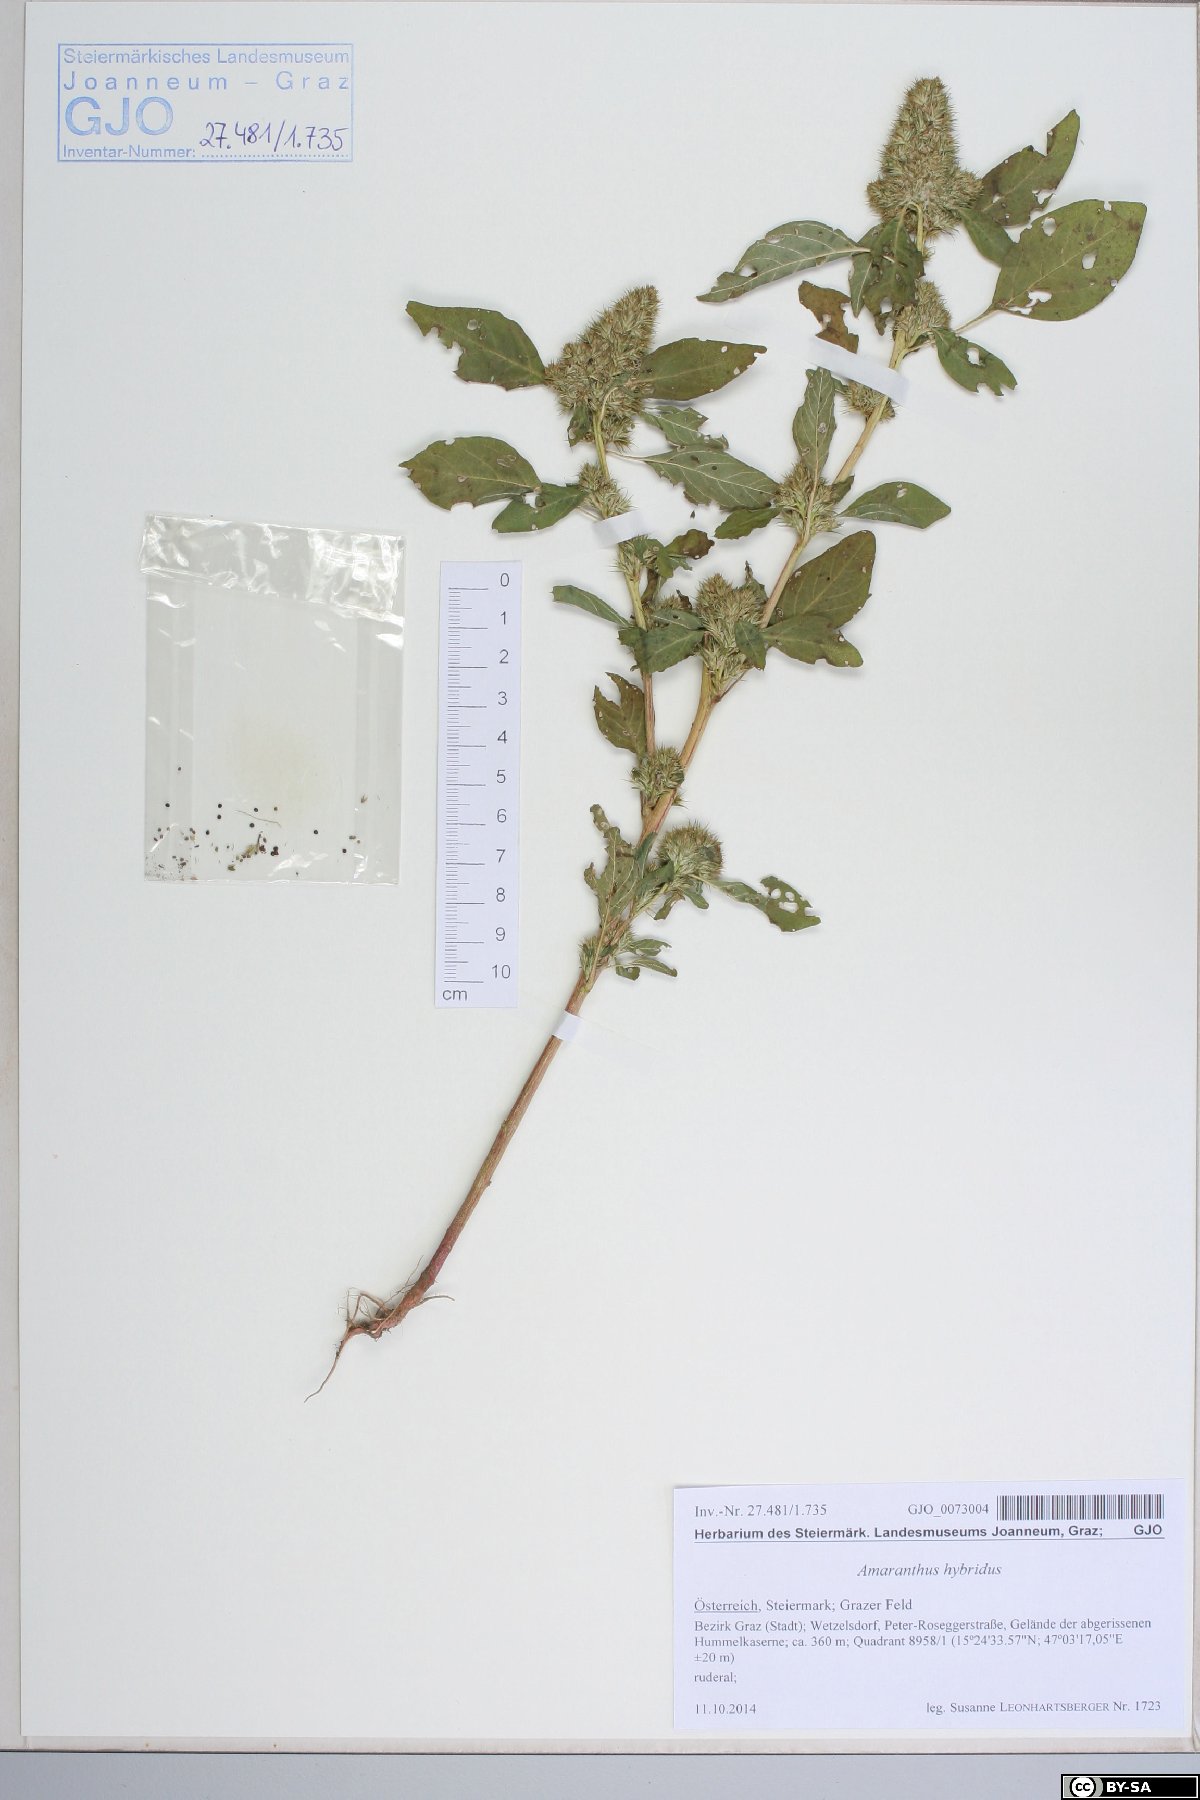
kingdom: Plantae
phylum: Tracheophyta
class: Magnoliopsida
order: Caryophyllales
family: Amaranthaceae
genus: Amaranthus
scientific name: Amaranthus hybridus
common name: Green amaranth
